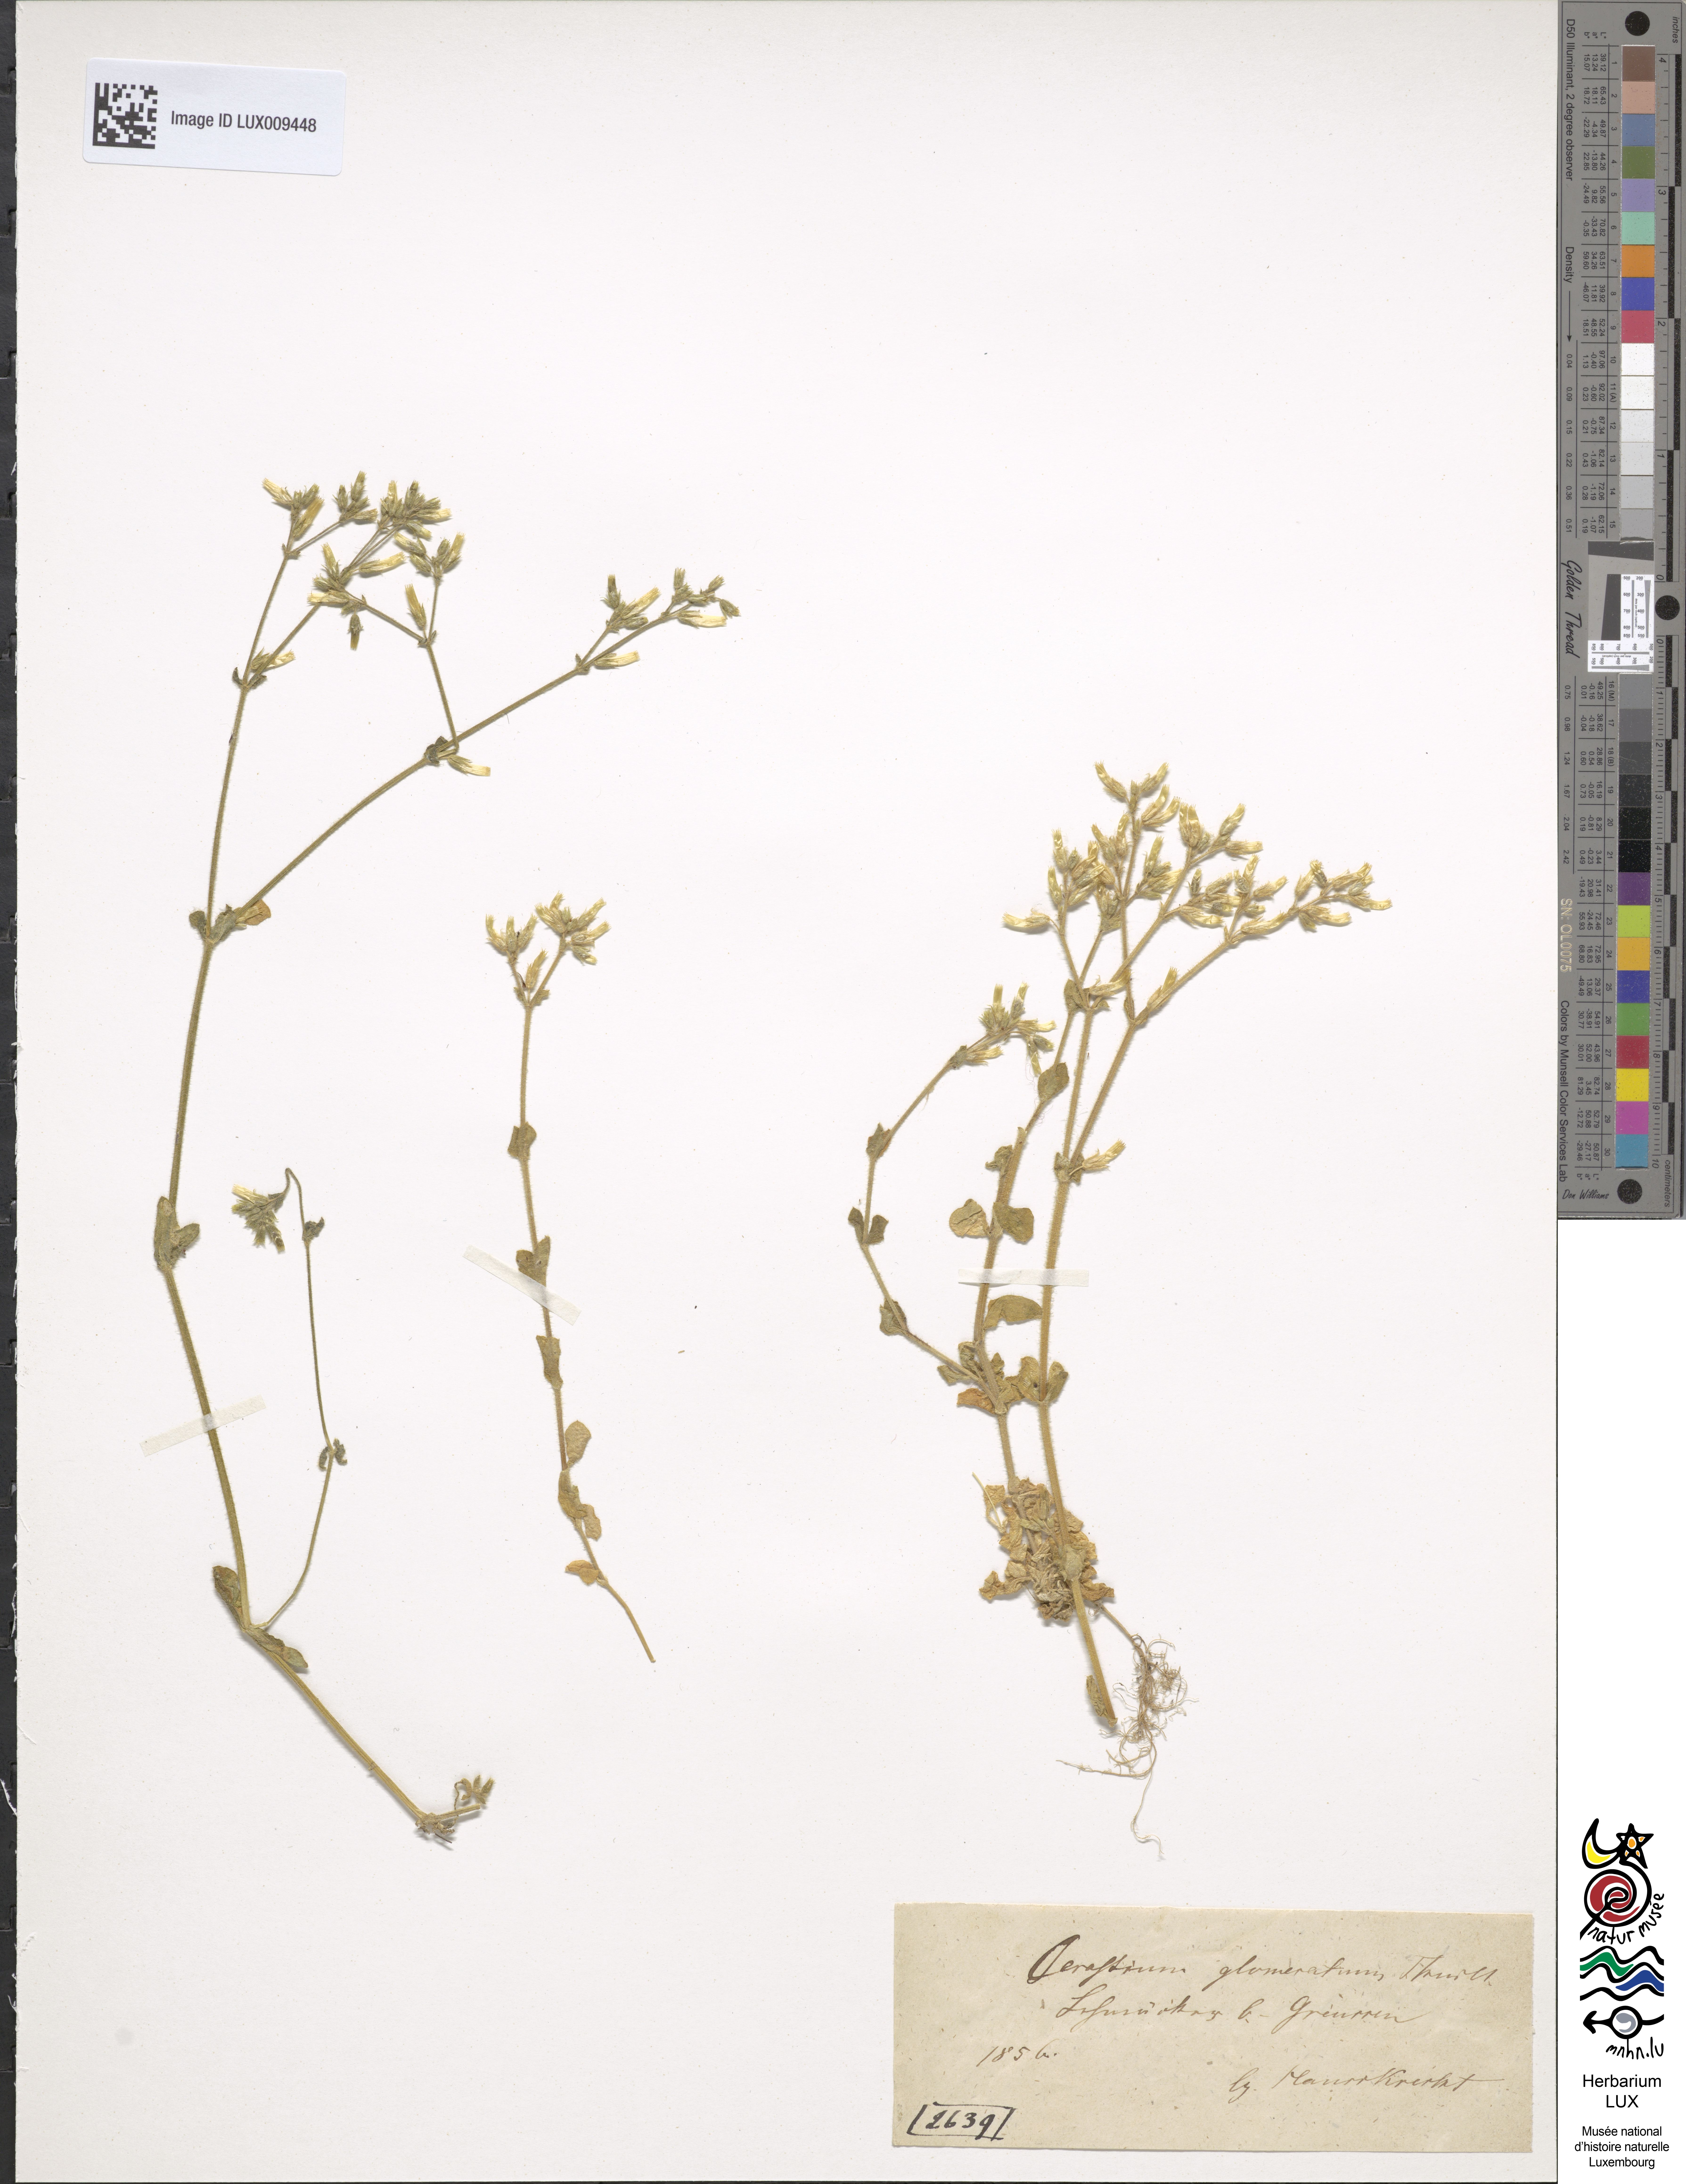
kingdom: Plantae
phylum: Tracheophyta
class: Magnoliopsida
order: Caryophyllales
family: Caryophyllaceae
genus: Cerastium
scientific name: Cerastium glomeratum
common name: Sticky chickweed
